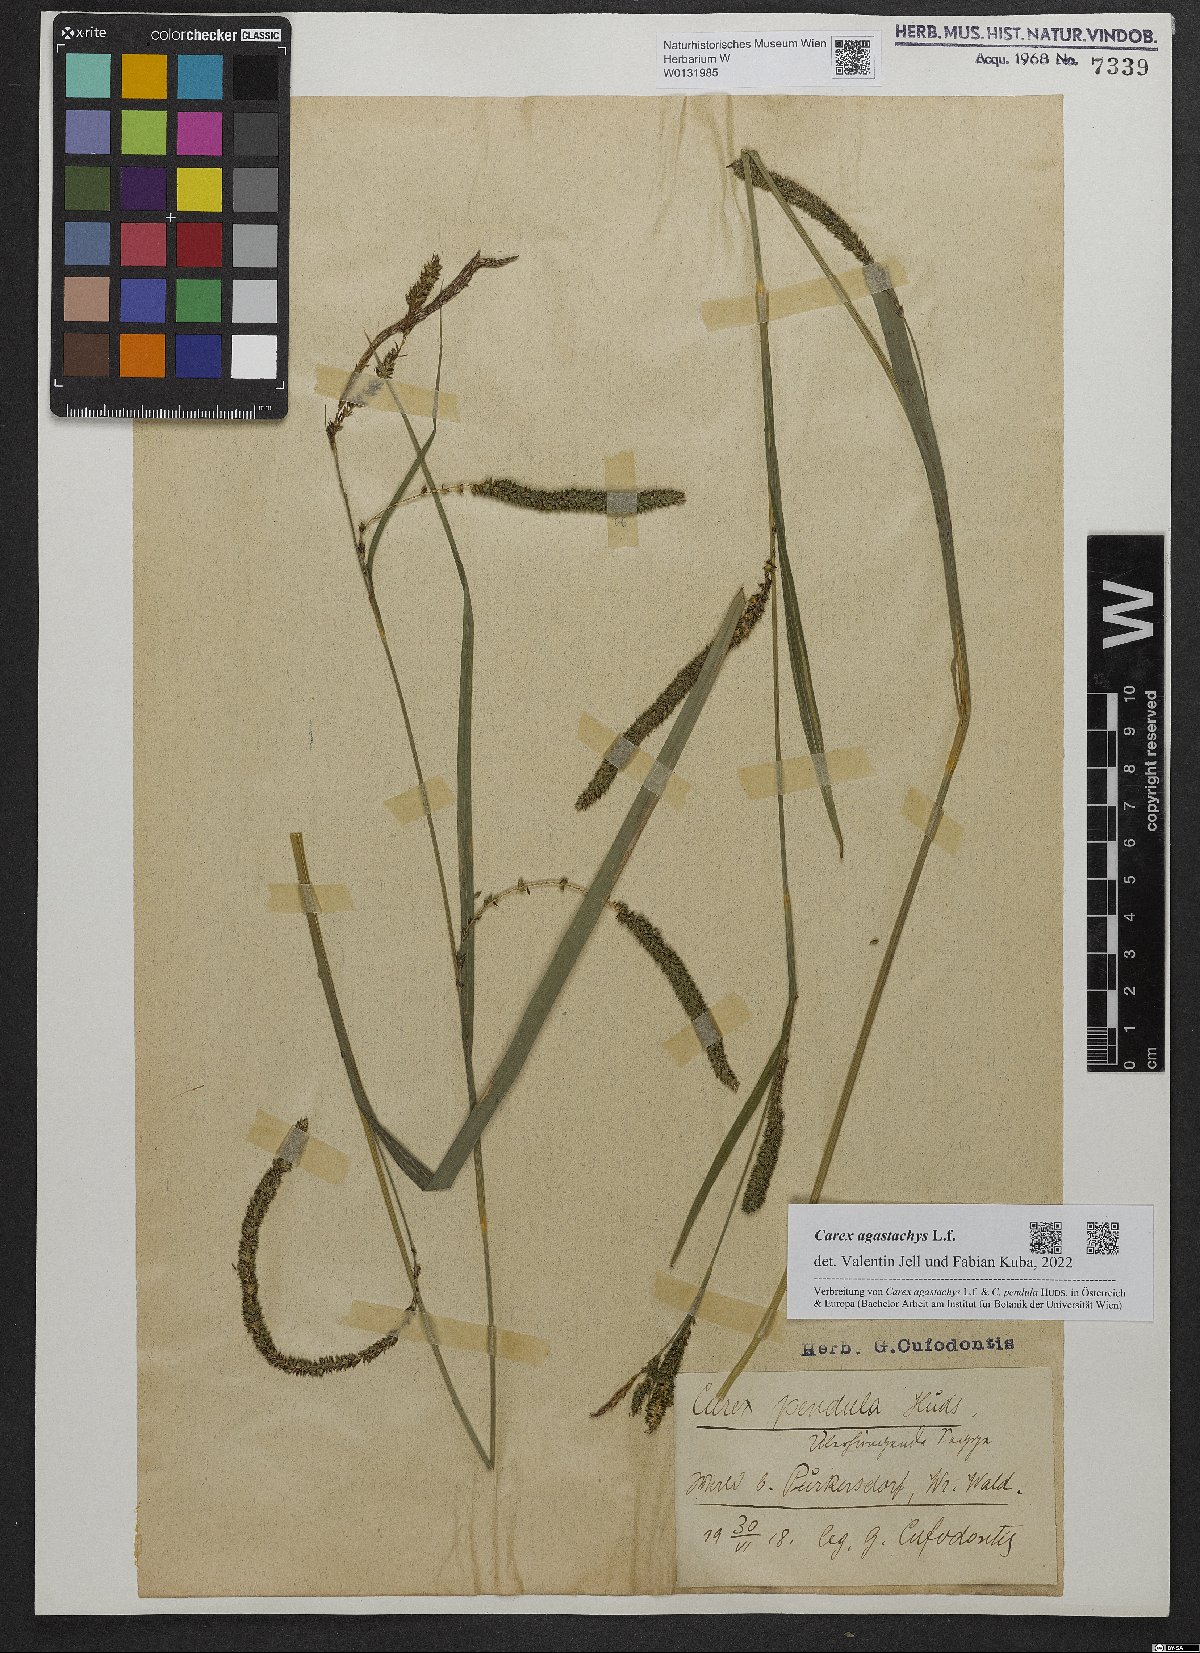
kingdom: Plantae
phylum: Tracheophyta
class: Liliopsida
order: Poales
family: Cyperaceae
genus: Carex
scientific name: Carex agastachys
